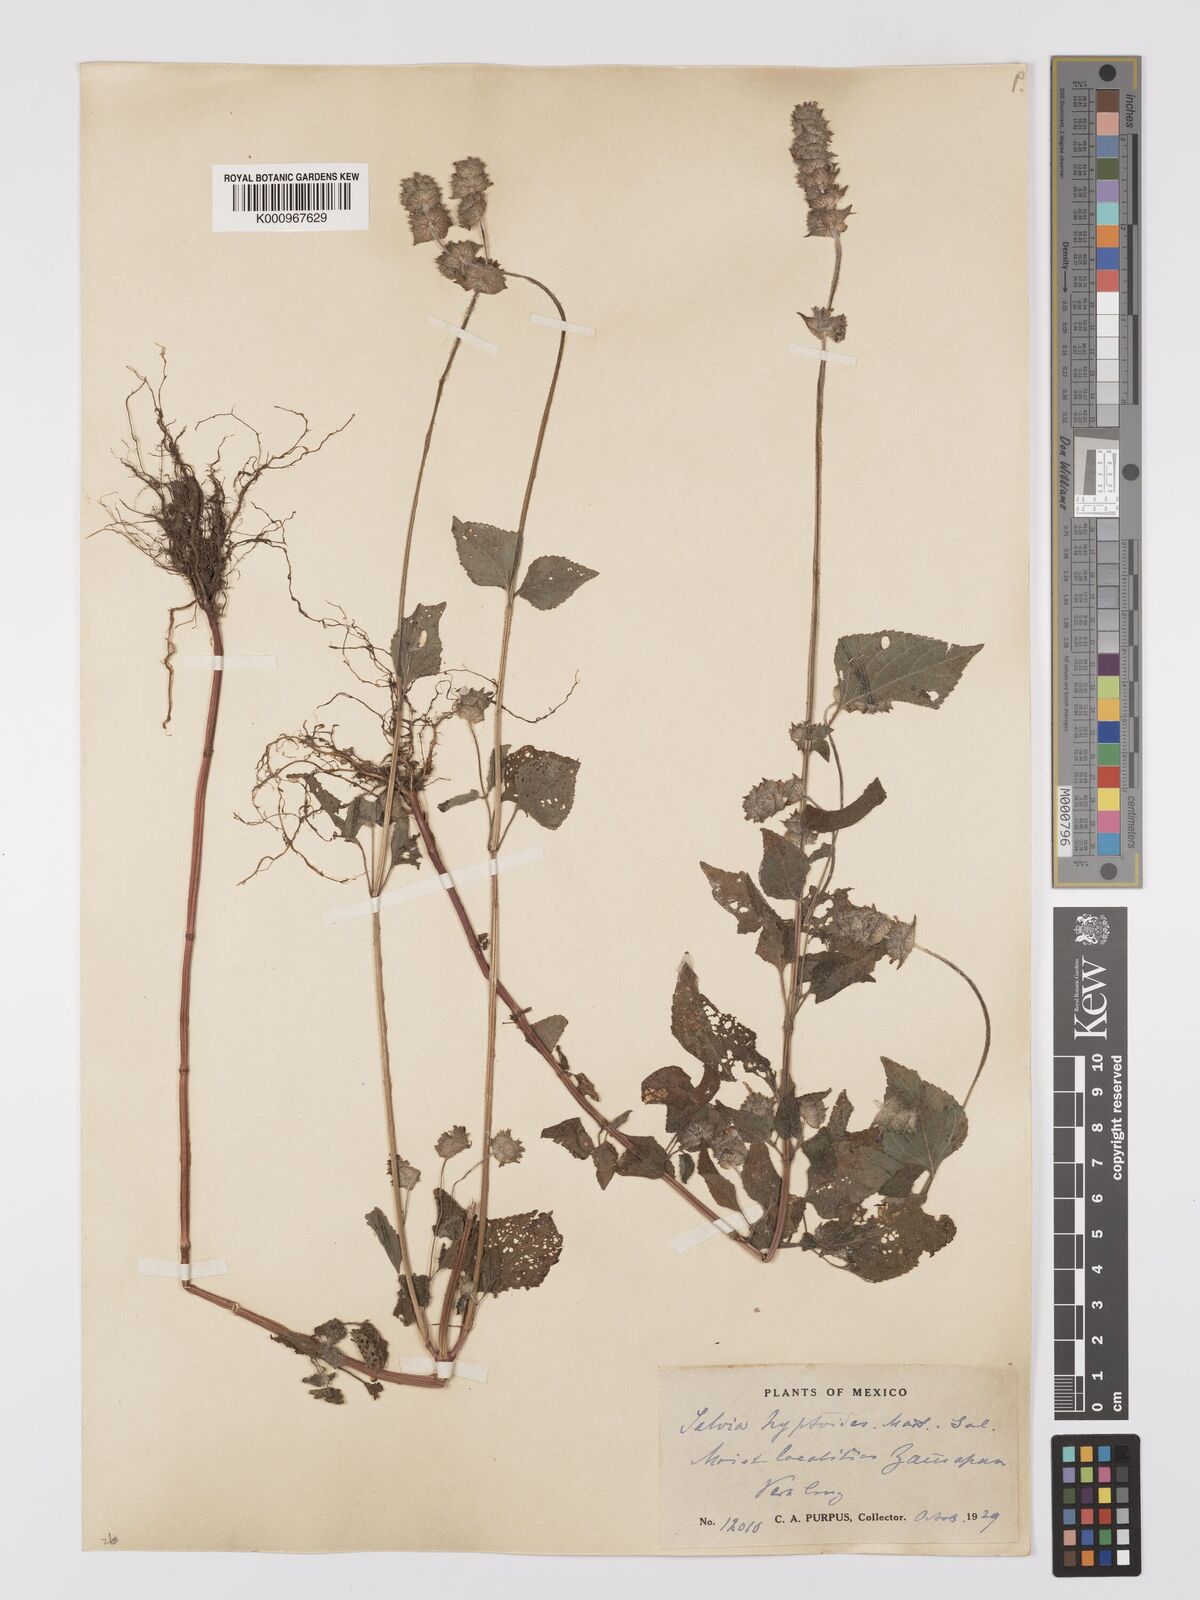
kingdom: Plantae
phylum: Tracheophyta
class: Magnoliopsida
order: Lamiales
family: Lamiaceae
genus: Salvia
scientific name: Salvia lasiocephala
